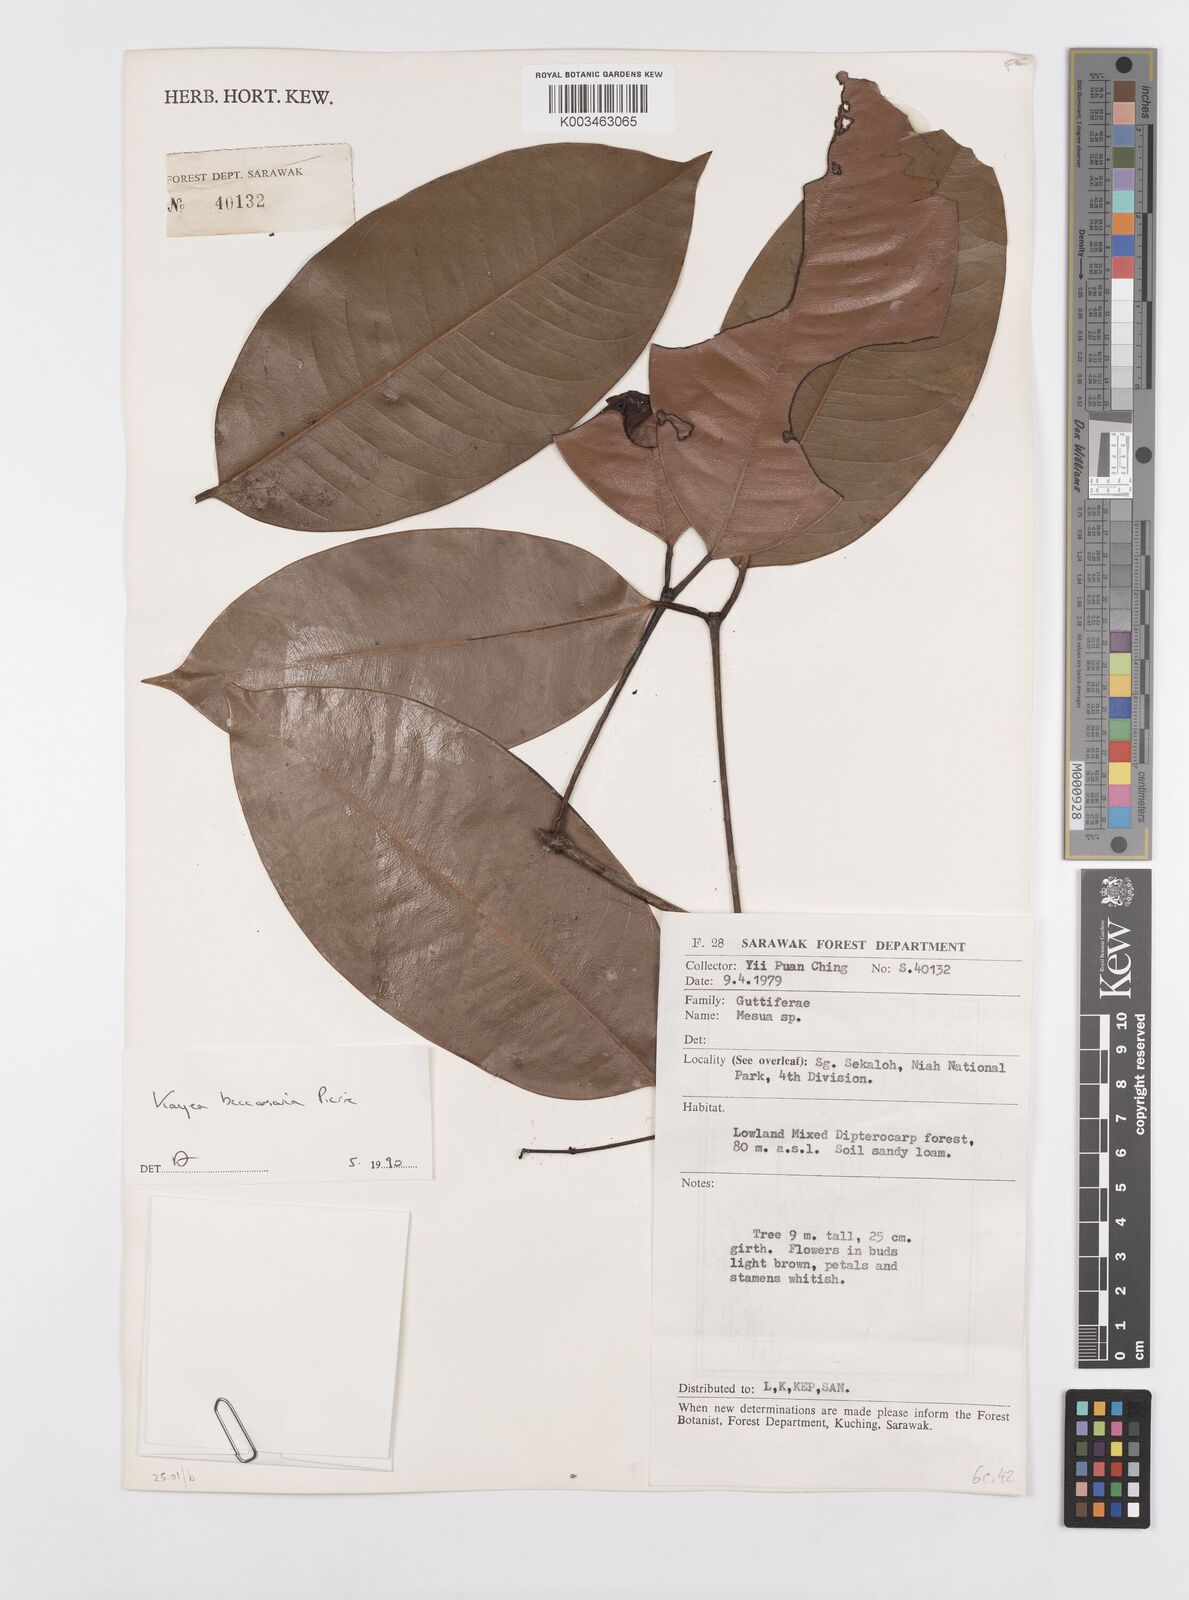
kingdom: Plantae
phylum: Tracheophyta
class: Magnoliopsida
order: Malpighiales
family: Calophyllaceae
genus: Kayea
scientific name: Kayea beccariana
